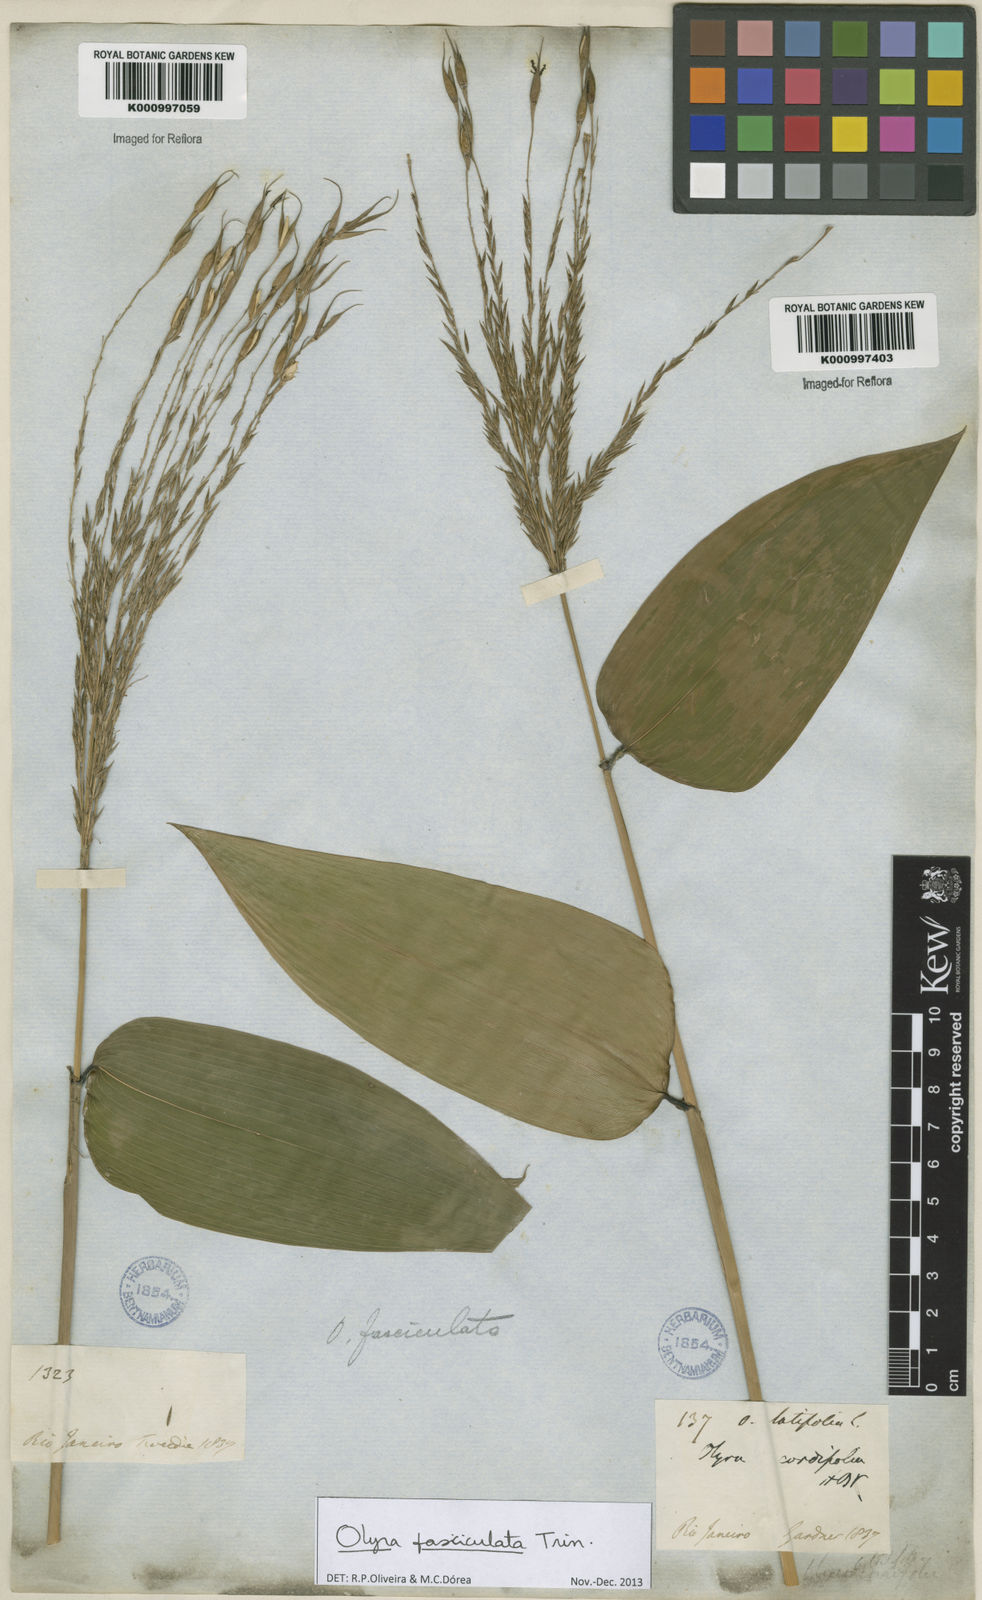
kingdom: Plantae
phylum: Tracheophyta
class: Liliopsida
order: Poales
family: Poaceae
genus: Olyra
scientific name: Olyra fasciculata
